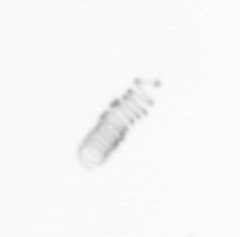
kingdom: Chromista
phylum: Ochrophyta
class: Bacillariophyceae
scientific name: Bacillariophyceae
